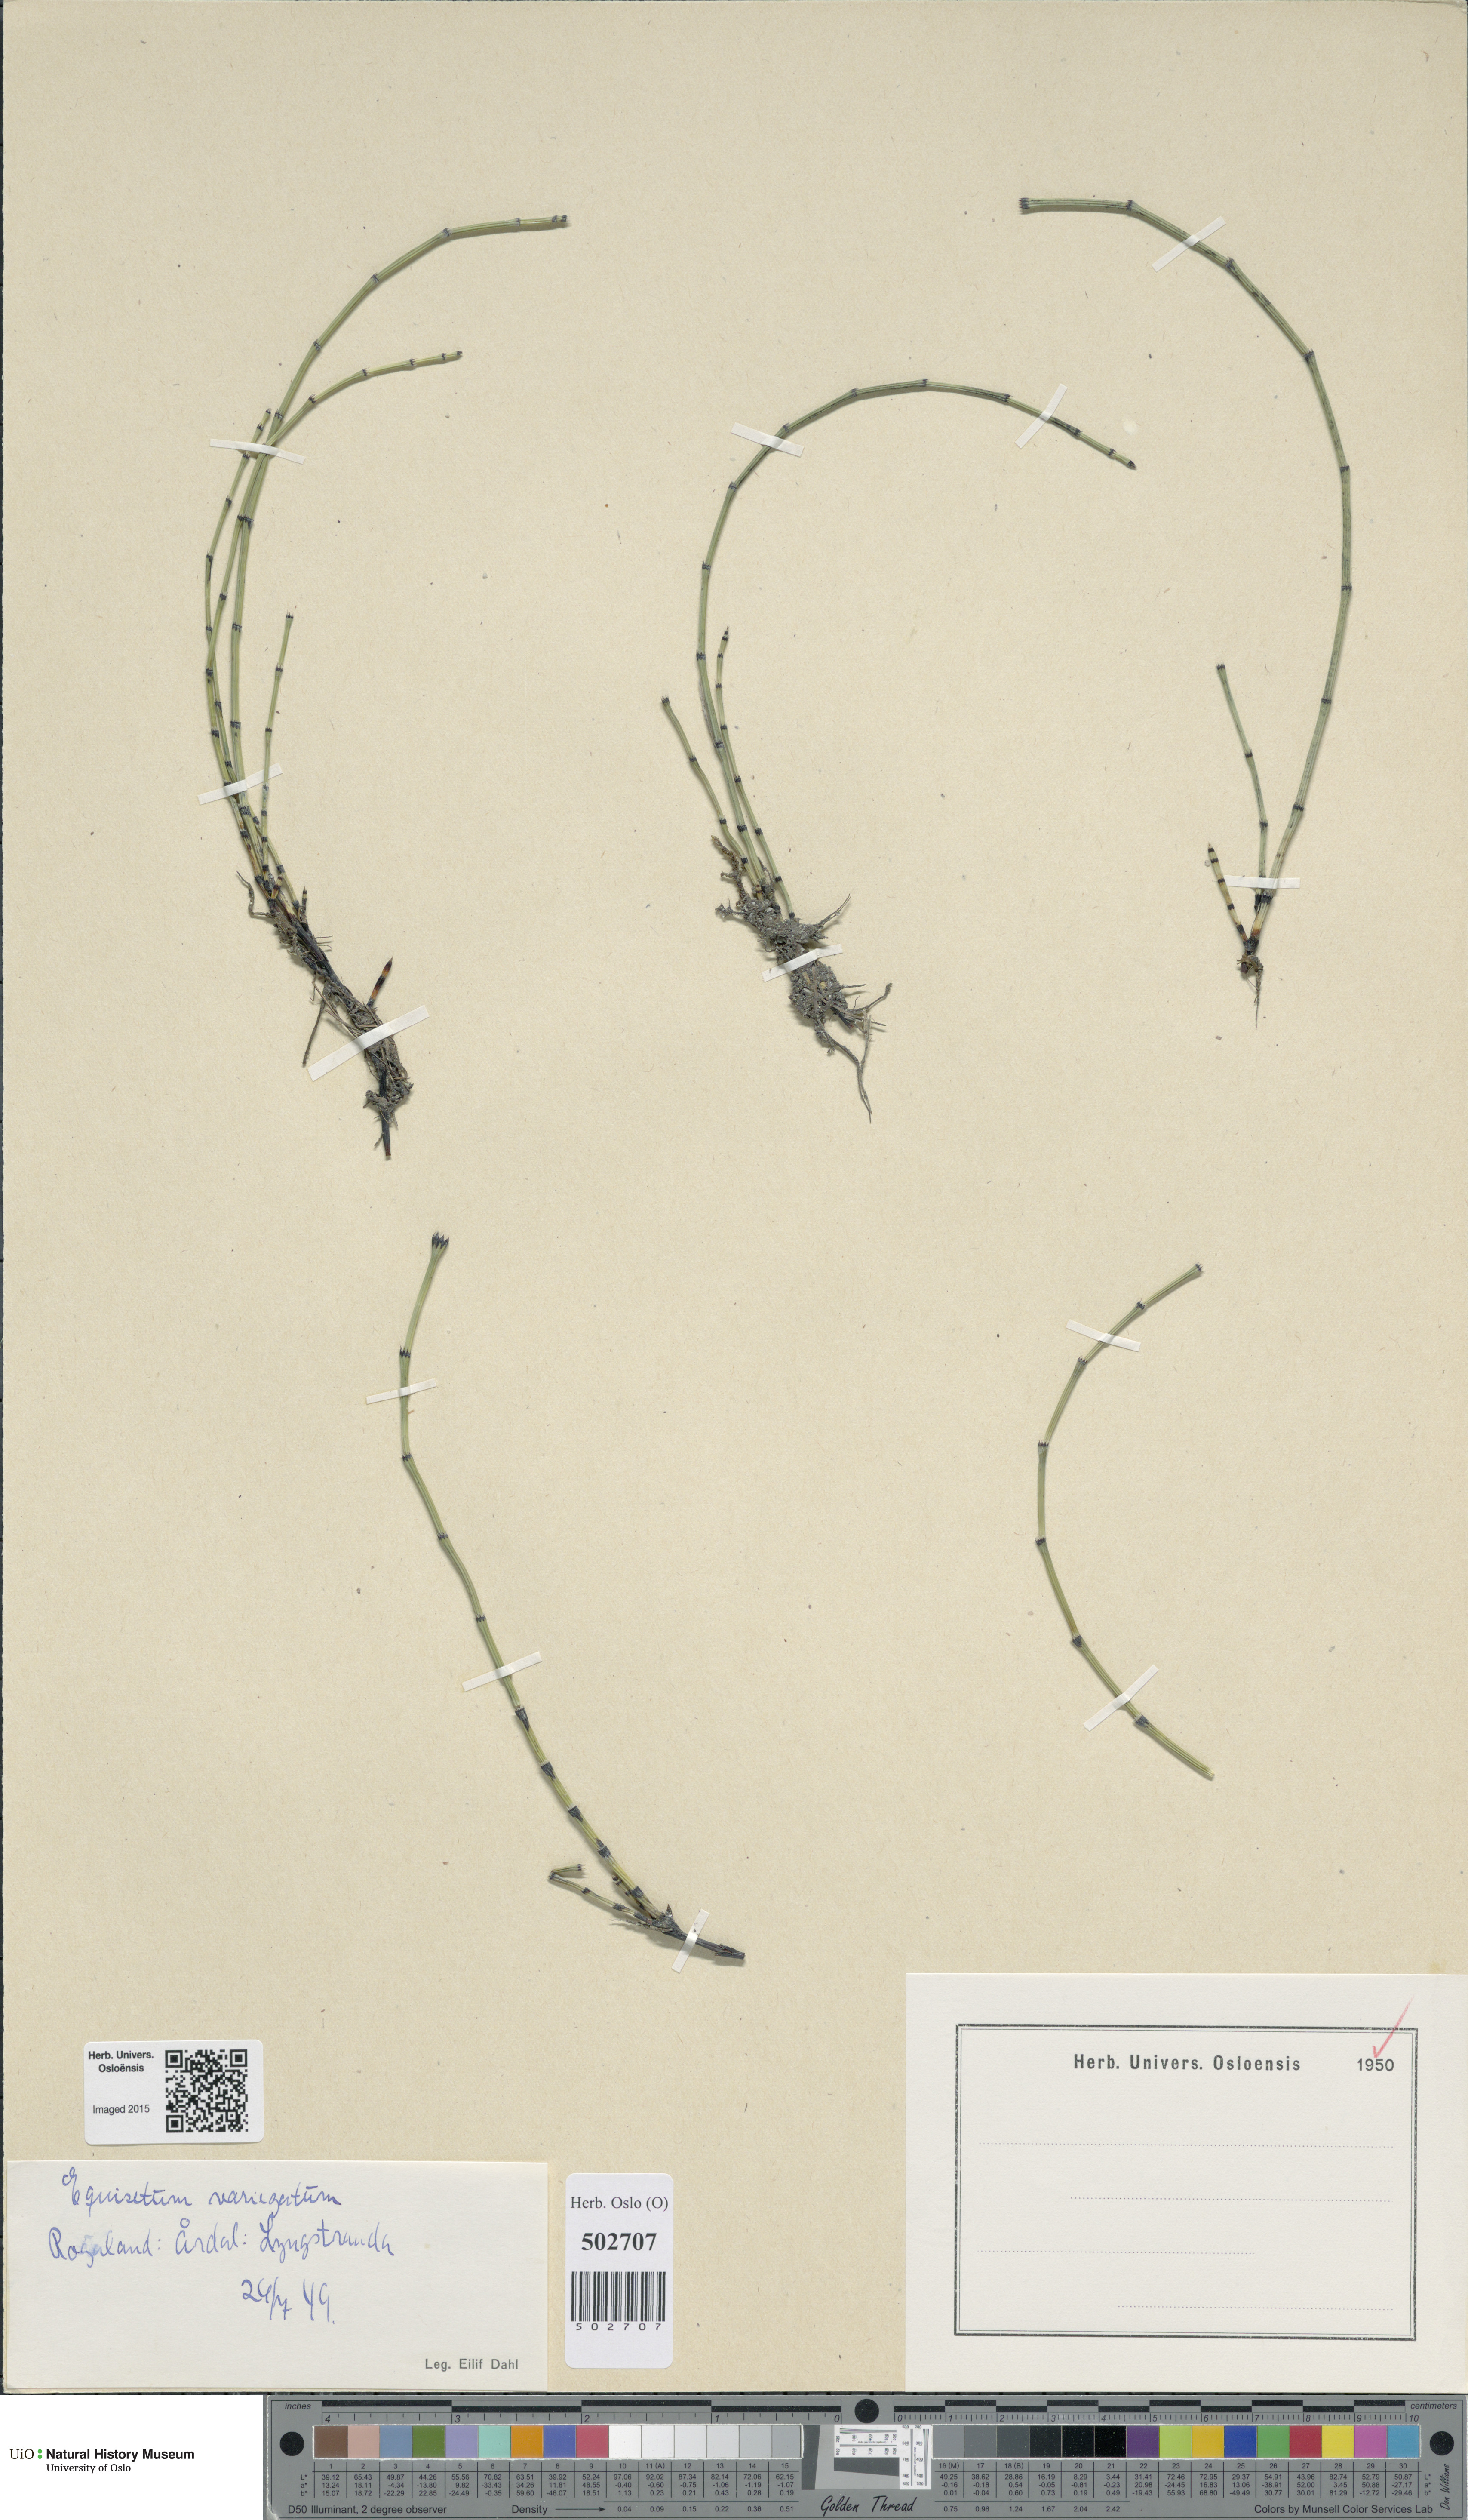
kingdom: Plantae
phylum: Tracheophyta
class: Polypodiopsida
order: Equisetales
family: Equisetaceae
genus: Equisetum
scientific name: Equisetum variegatum
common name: Variegated horsetail
